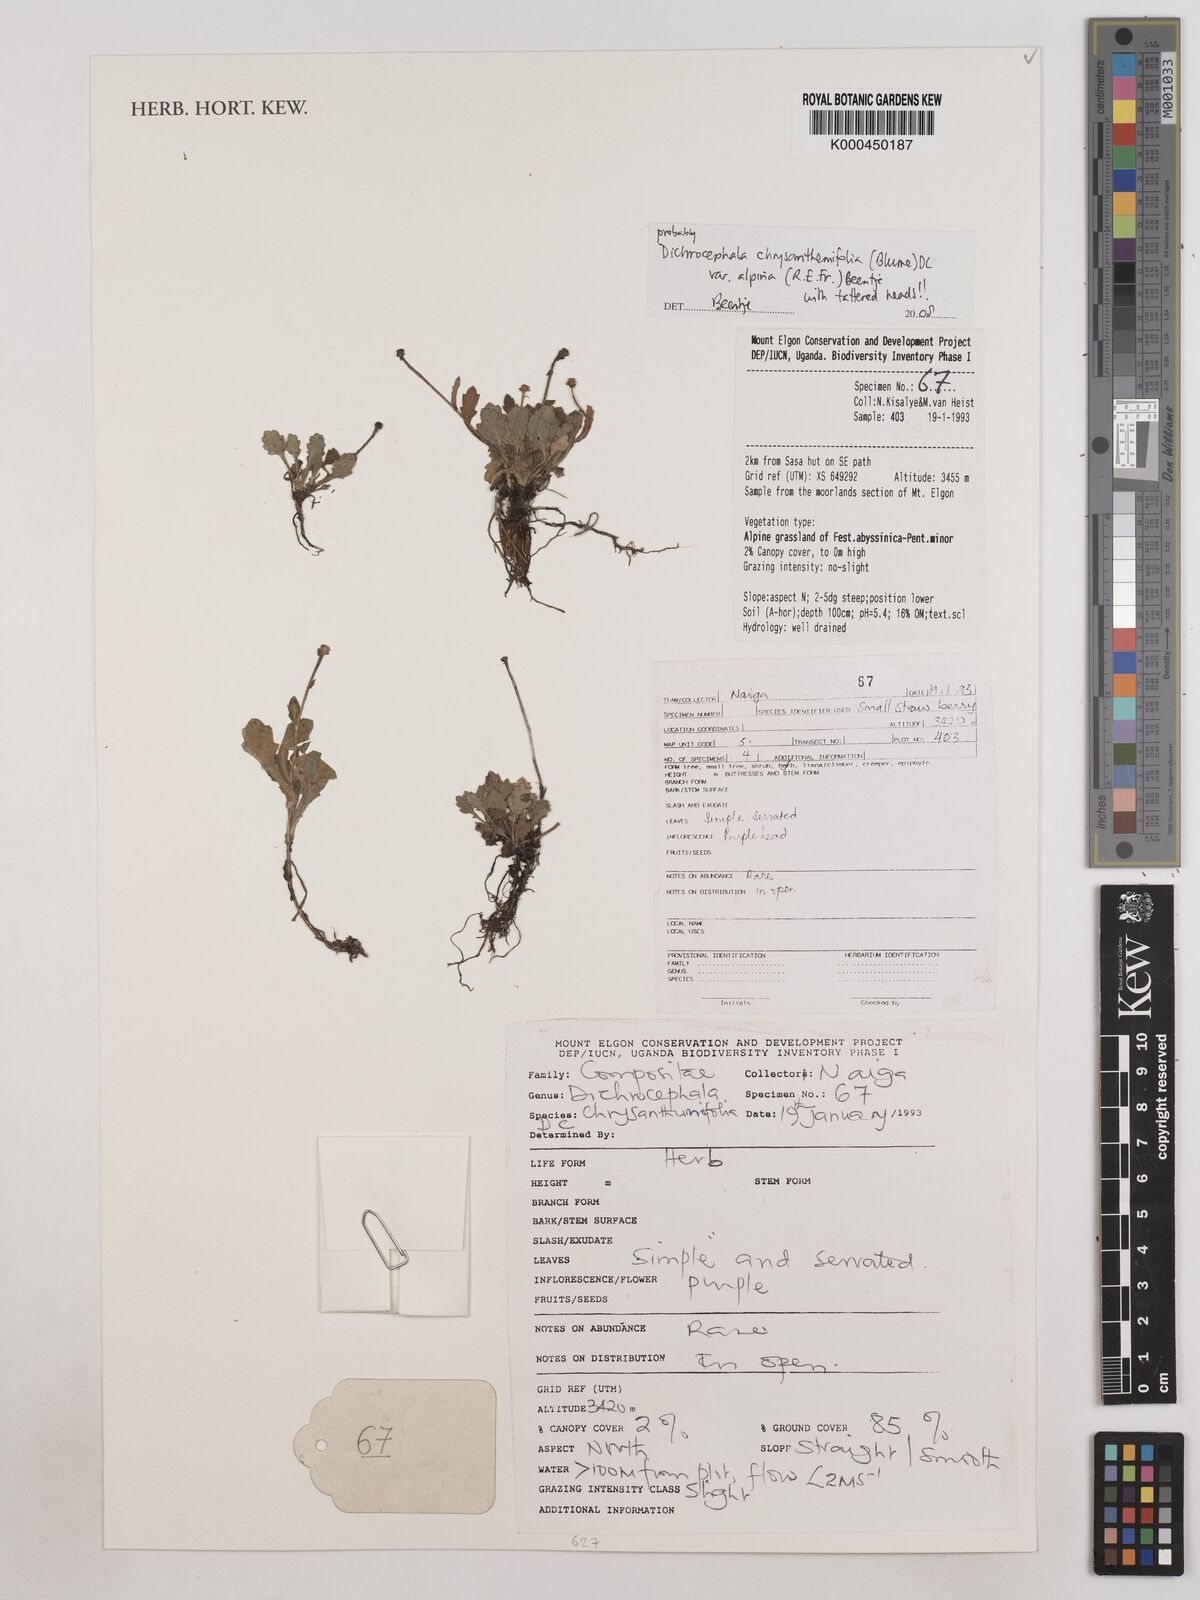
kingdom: Plantae
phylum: Tracheophyta
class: Magnoliopsida
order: Asterales
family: Asteraceae
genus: Dichrocephala
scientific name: Dichrocephala chrysanthemifolia
